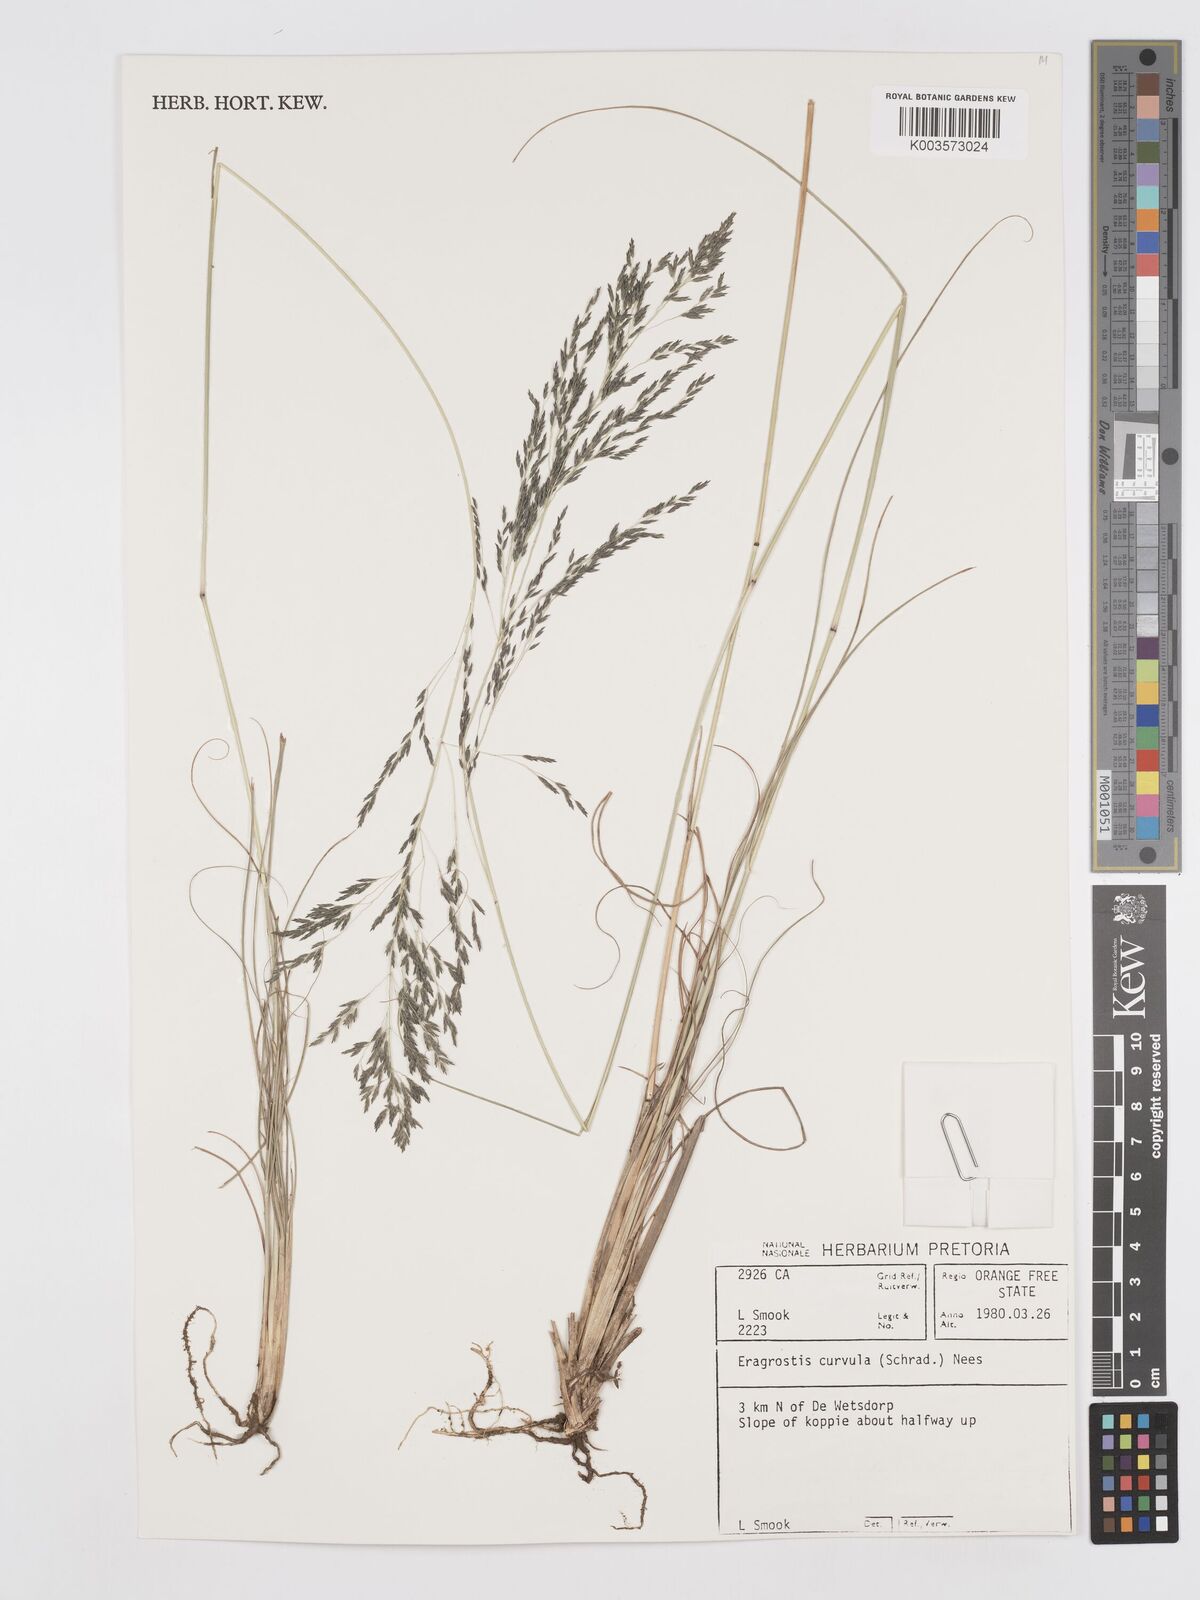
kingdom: Plantae
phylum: Tracheophyta
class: Liliopsida
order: Poales
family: Poaceae
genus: Eragrostis
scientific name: Eragrostis curvula
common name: African love-grass
